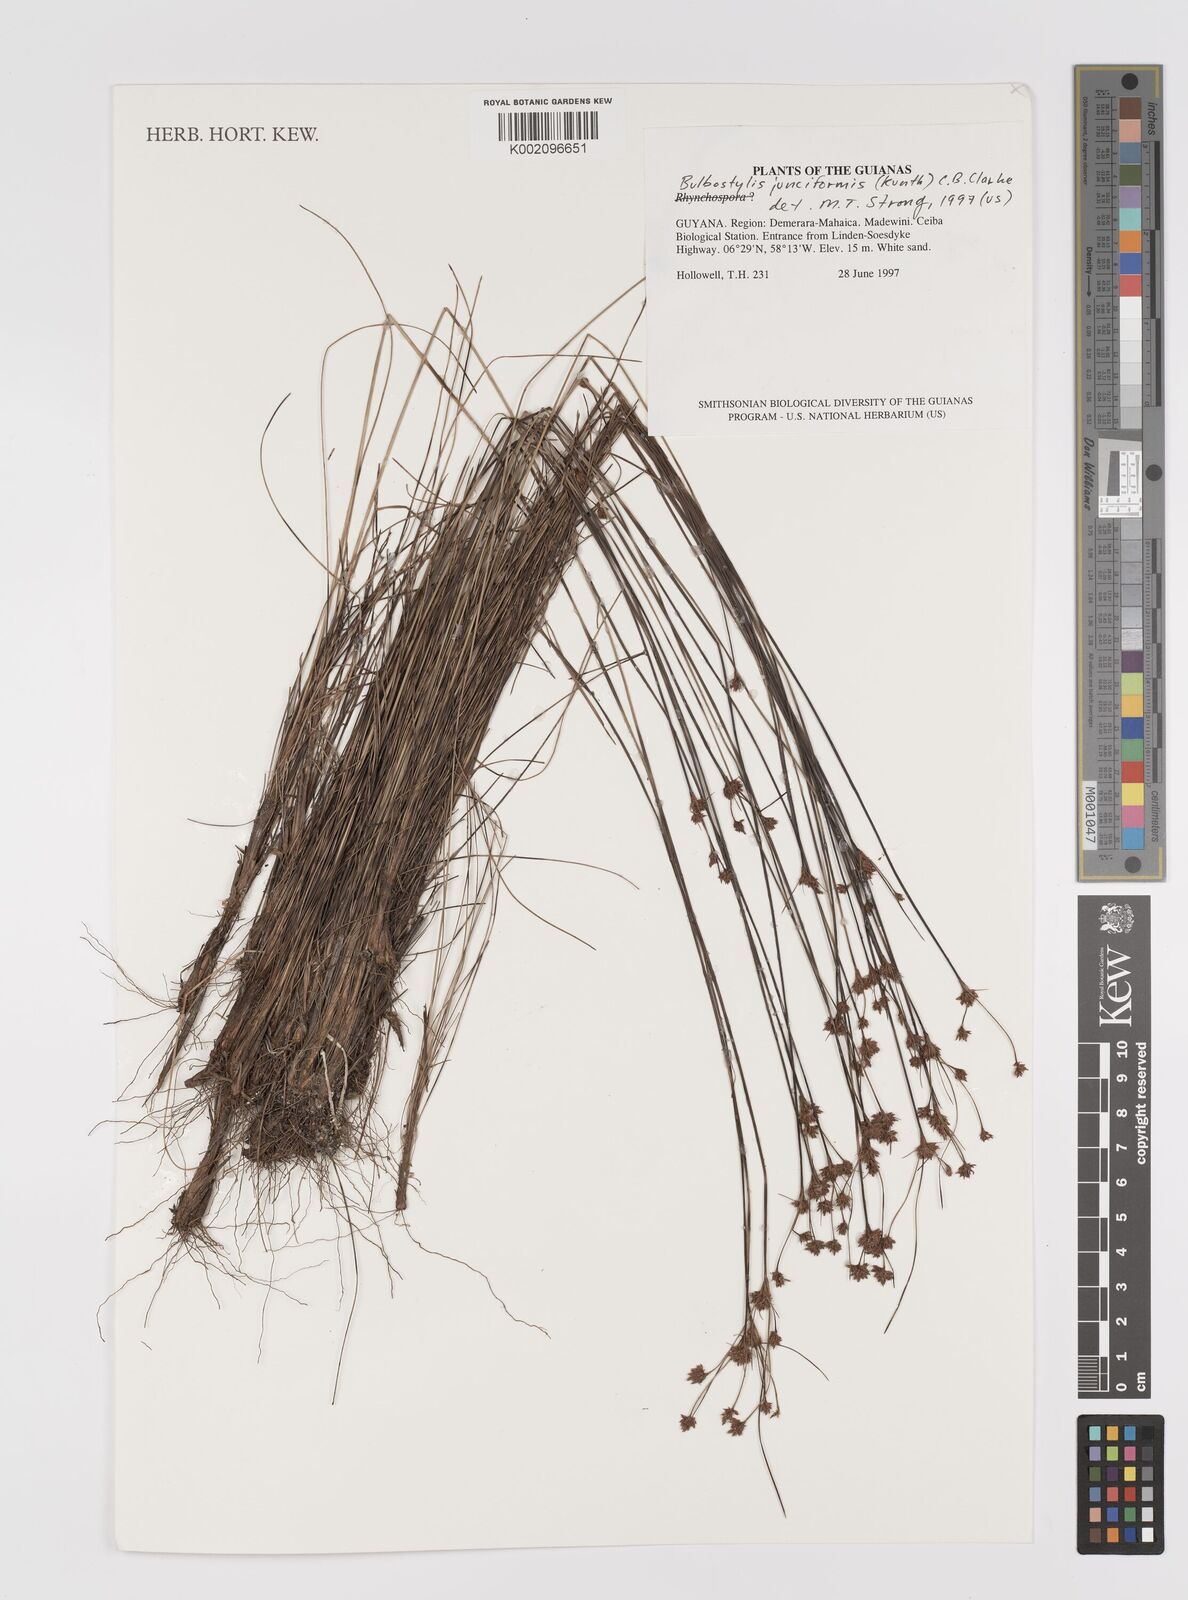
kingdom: Plantae
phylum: Tracheophyta
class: Liliopsida
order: Poales
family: Cyperaceae
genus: Bulbostylis
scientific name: Bulbostylis junciformis
